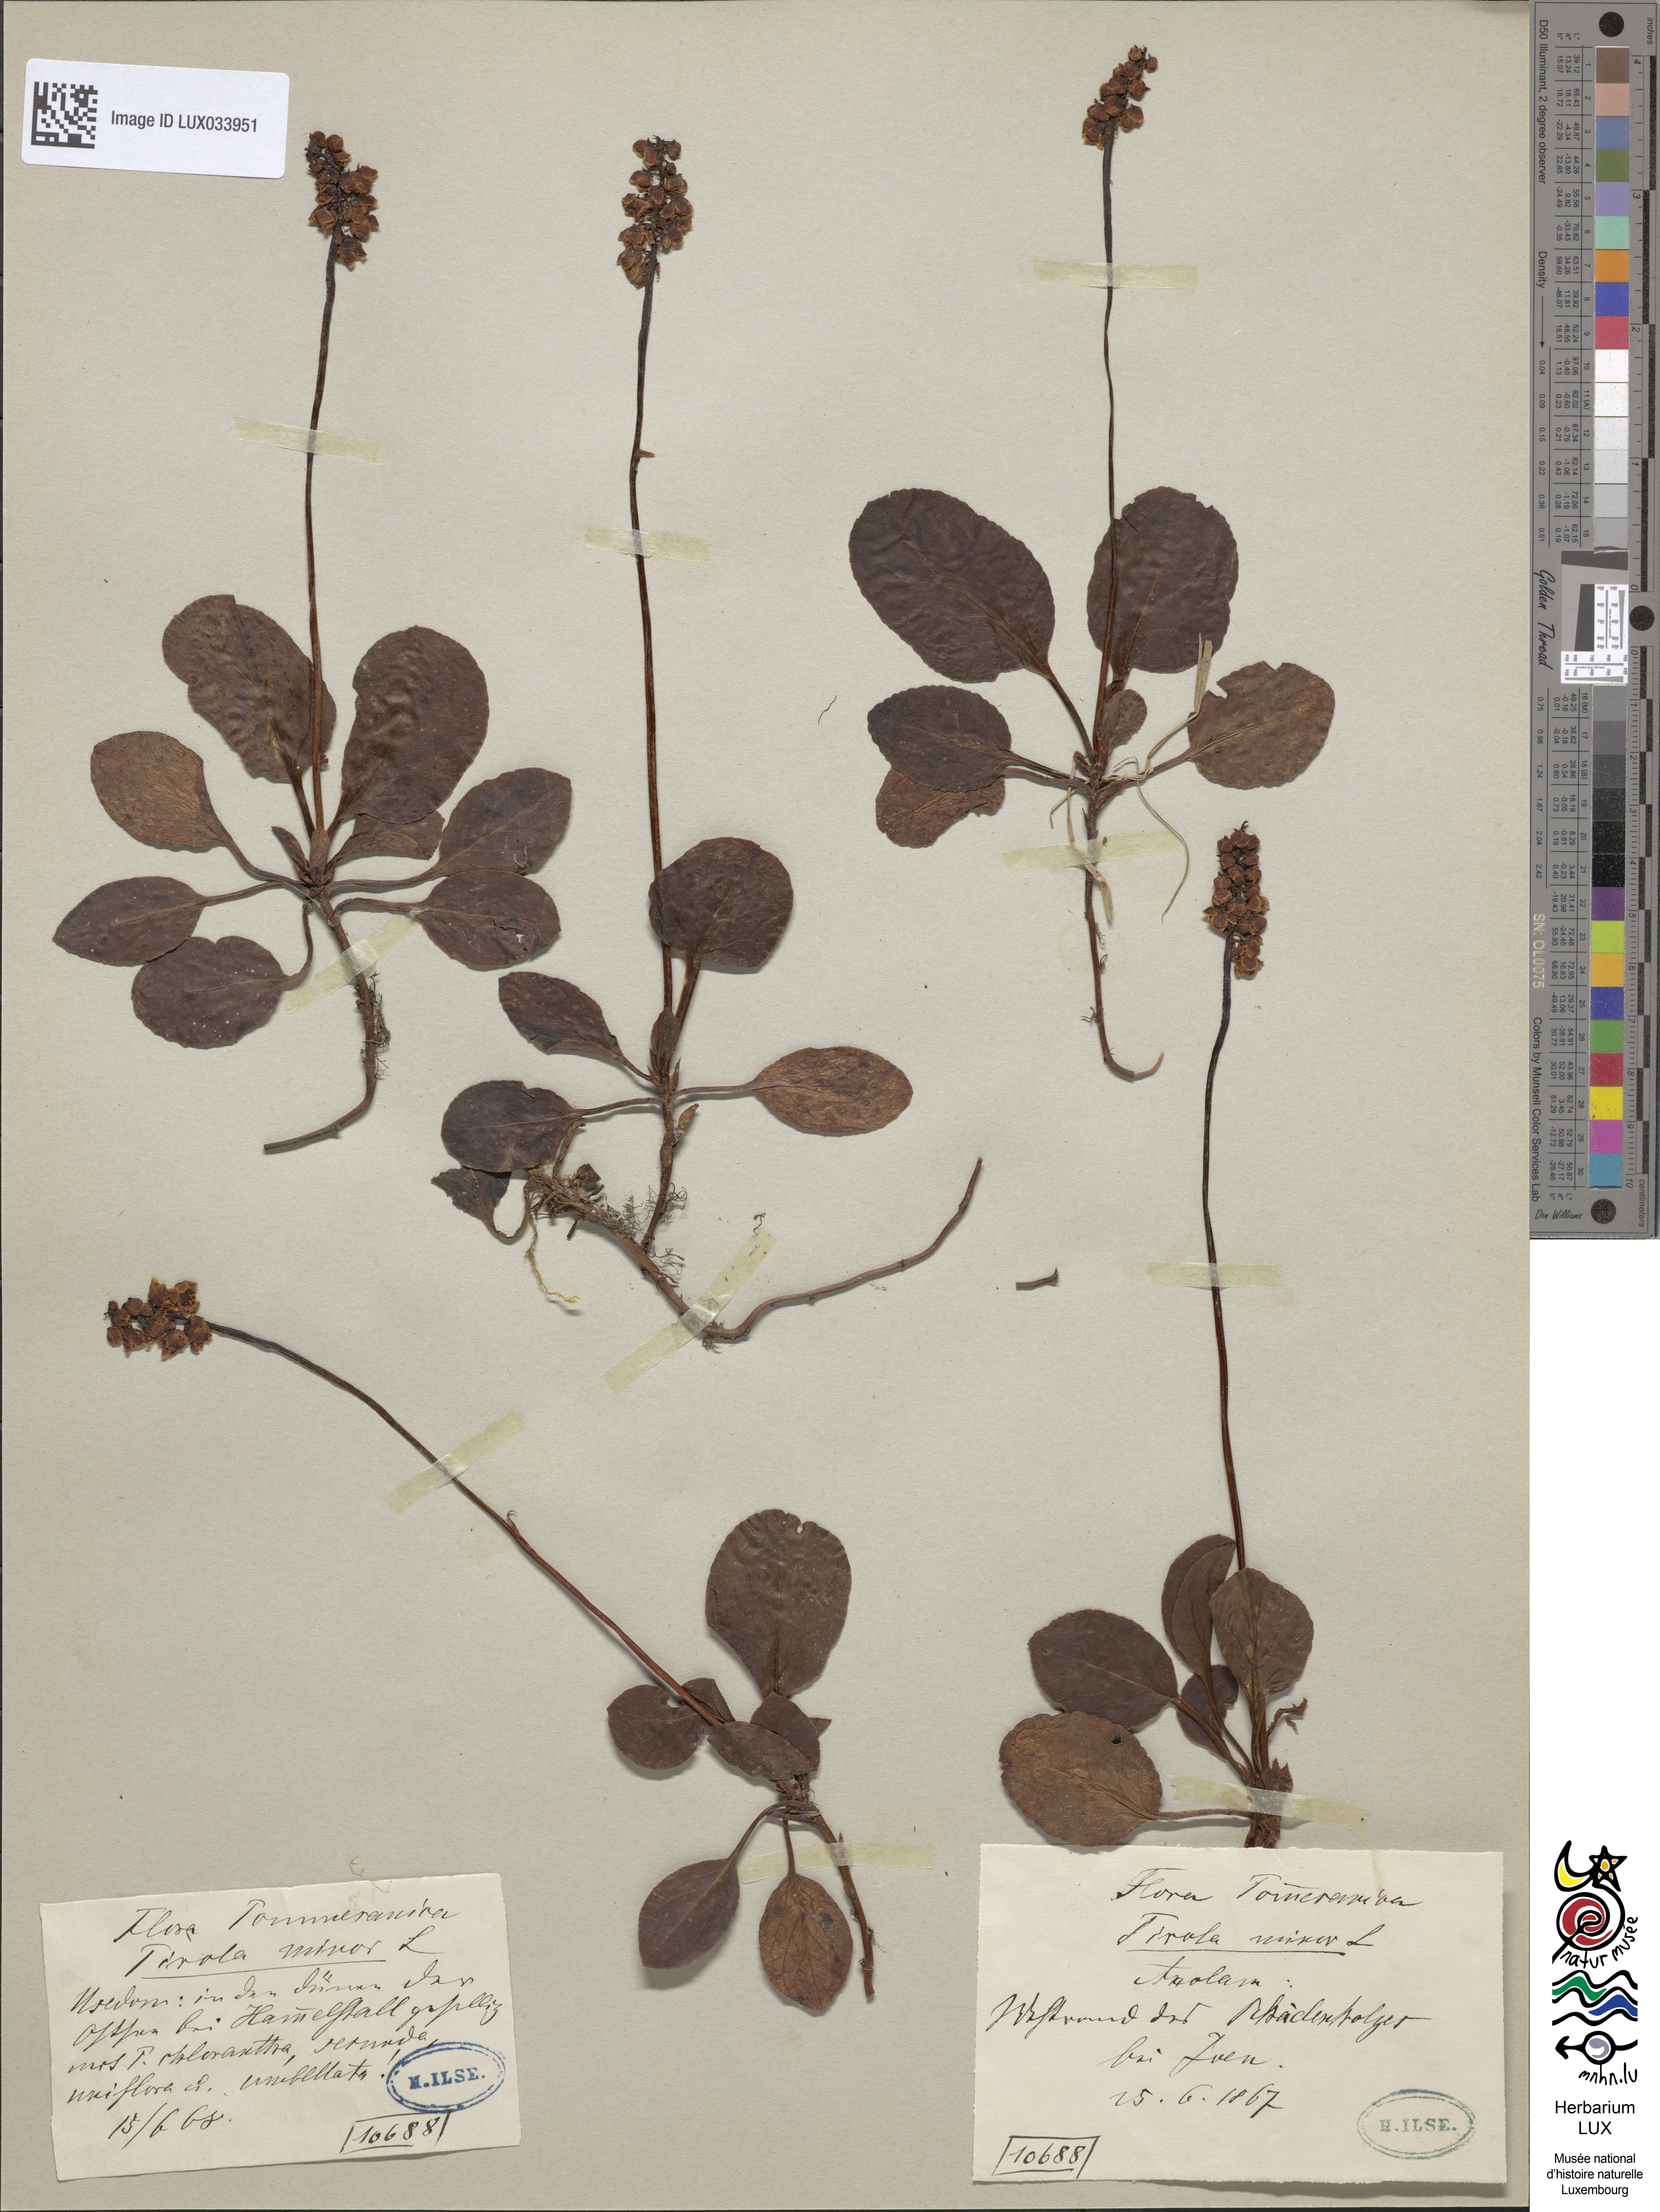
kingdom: Plantae
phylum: Tracheophyta
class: Magnoliopsida
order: Ericales
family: Ericaceae
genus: Pyrola
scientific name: Pyrola minor
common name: Common wintergreen
